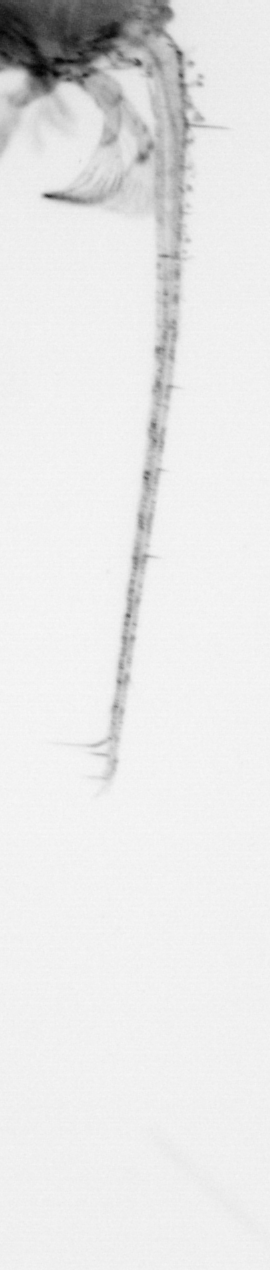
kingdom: Animalia
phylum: Chordata
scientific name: Chordata
